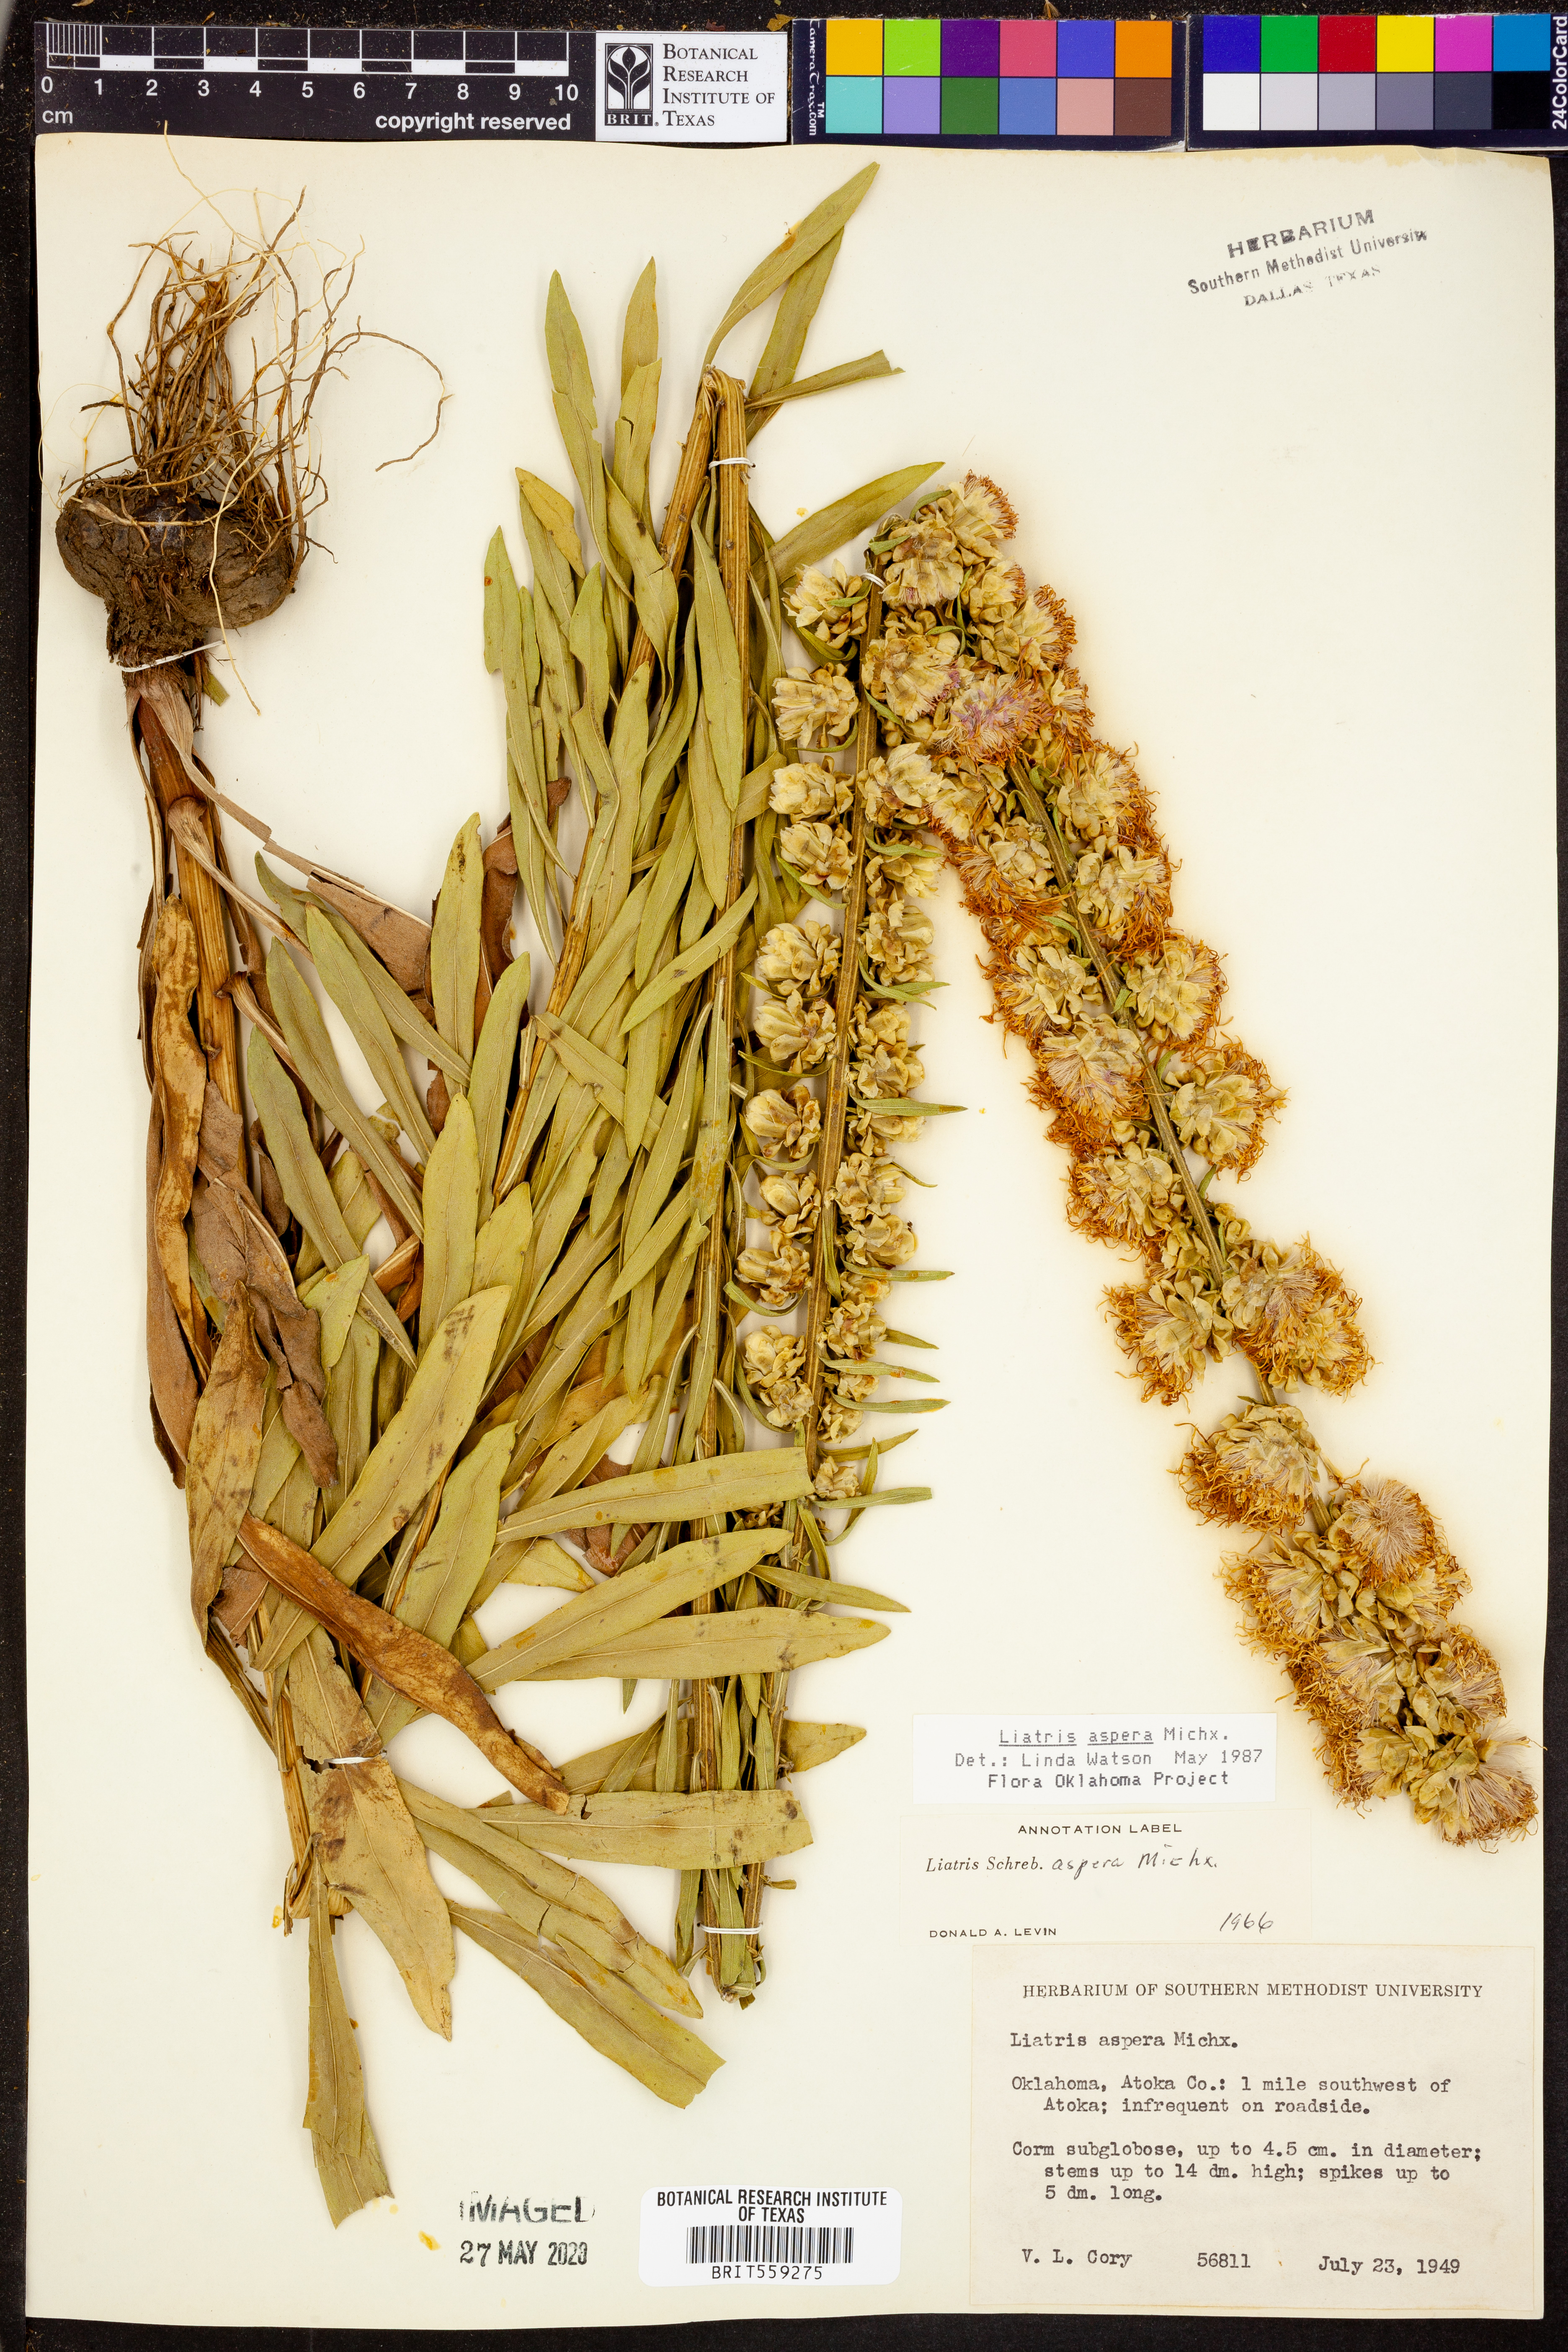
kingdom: Plantae
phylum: Tracheophyta
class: Magnoliopsida
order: Asterales
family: Asteraceae
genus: Liatris
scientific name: Liatris aspera
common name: Lacerate blazing-star
